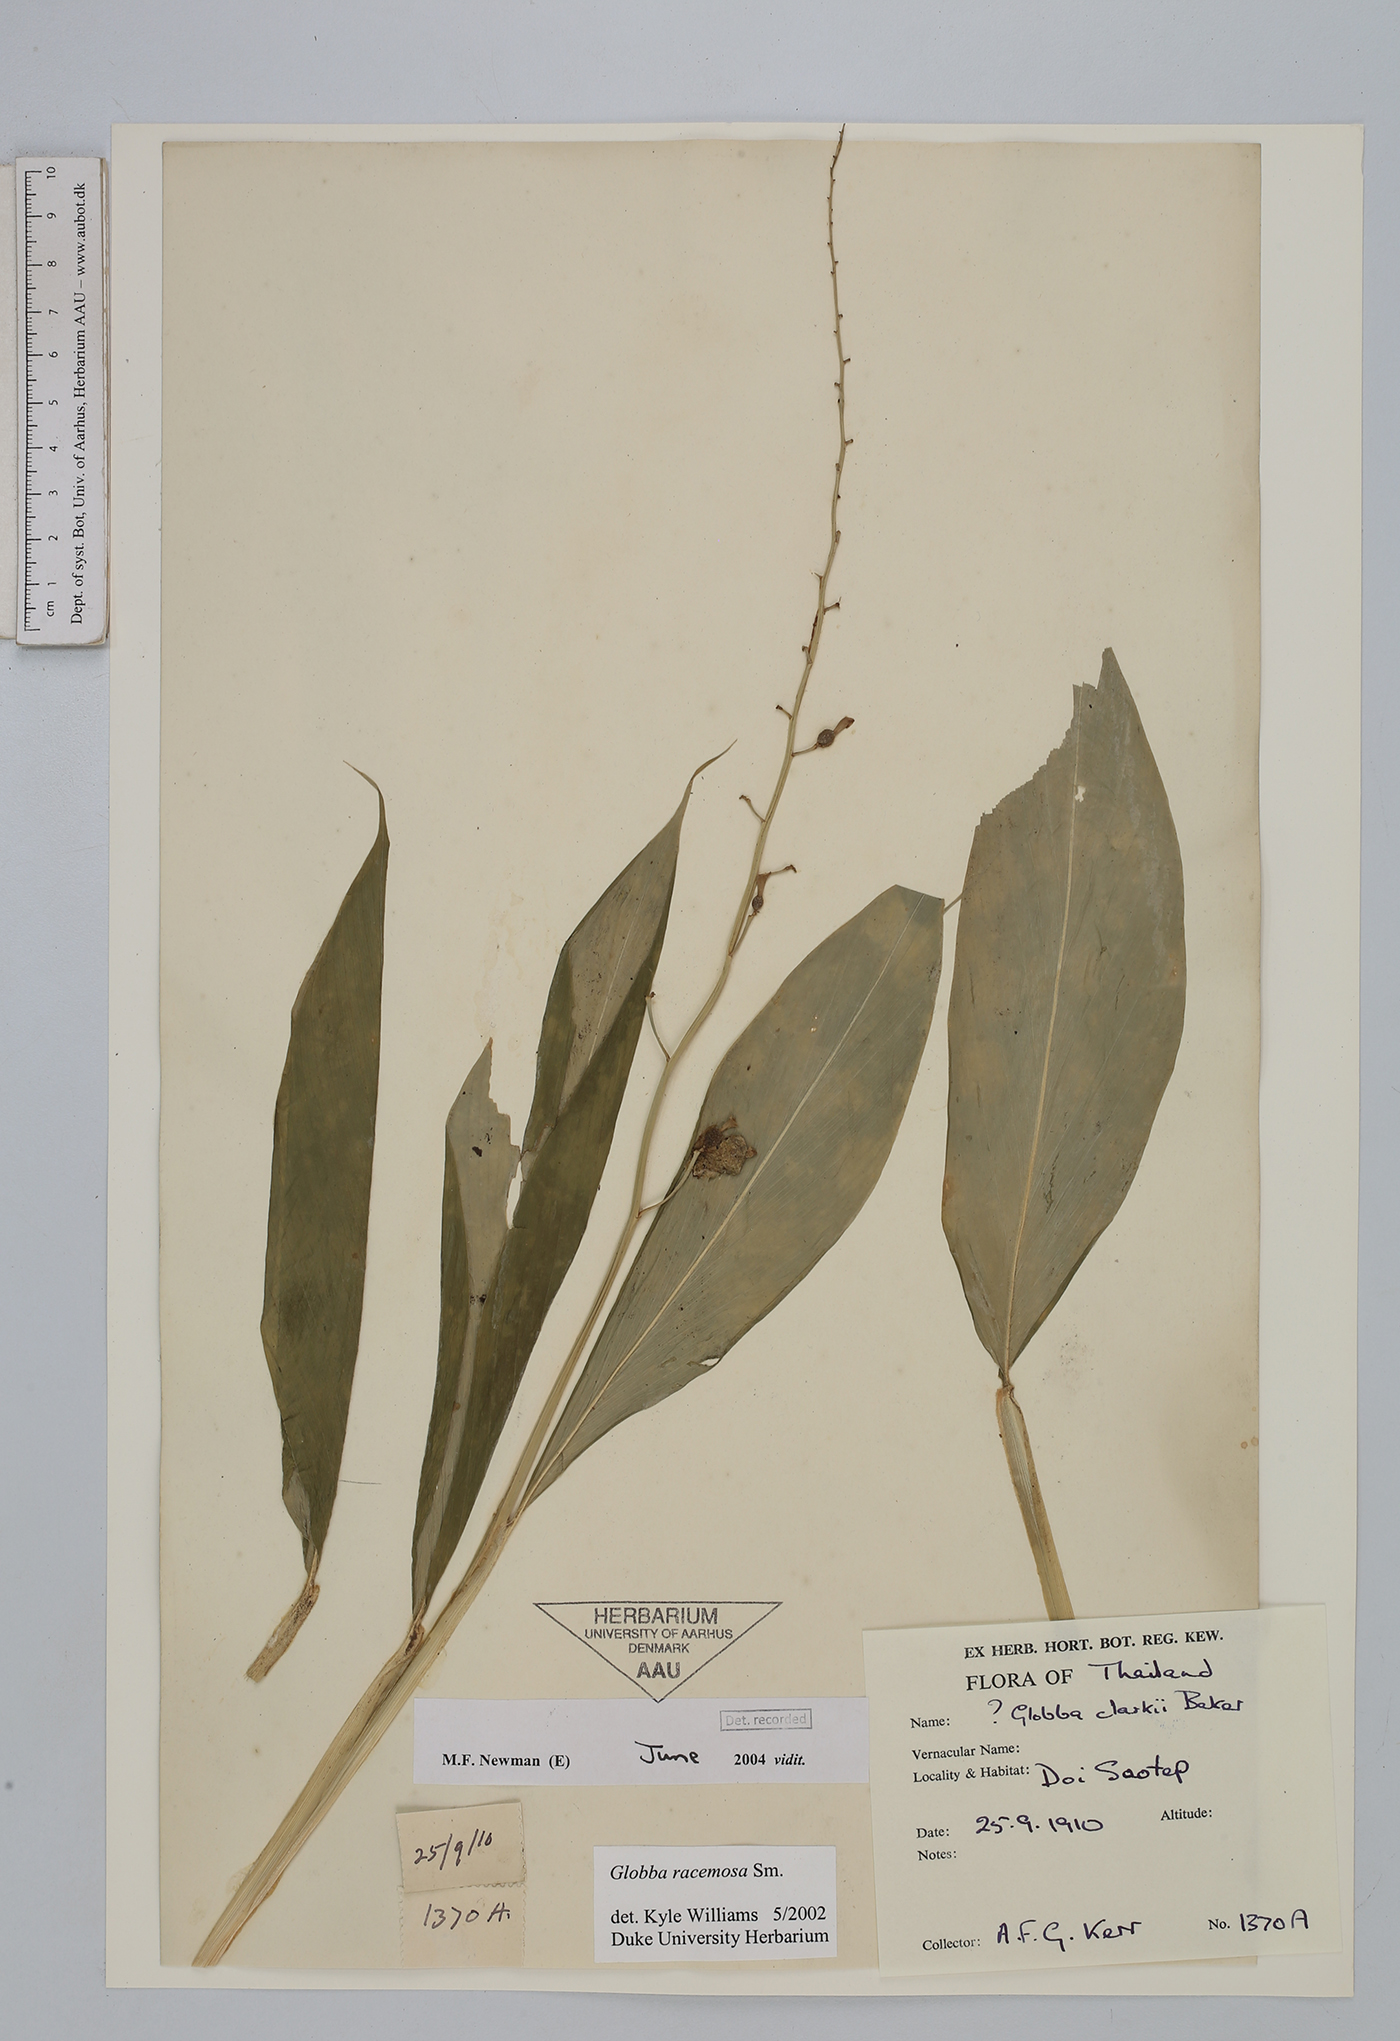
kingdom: Plantae
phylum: Tracheophyta
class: Liliopsida
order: Zingiberales
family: Zingiberaceae
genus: Globba
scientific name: Globba racemosa
